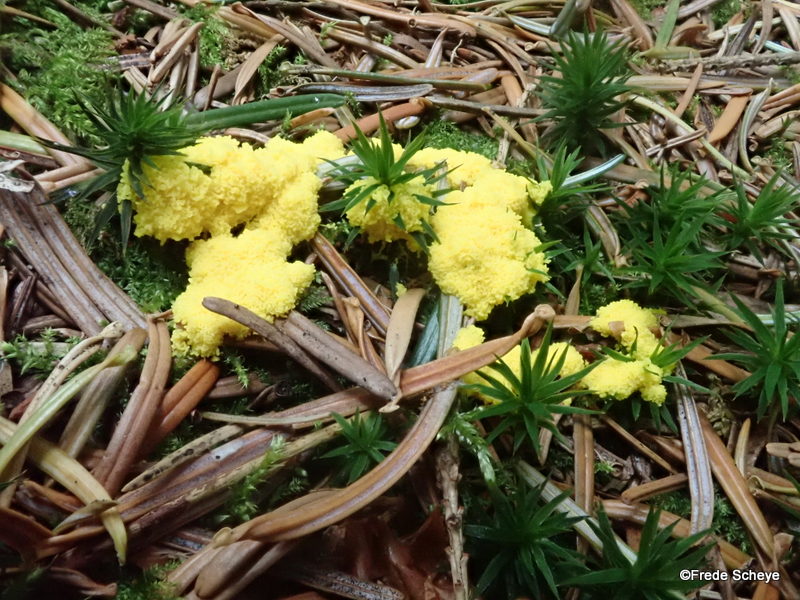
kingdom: Protozoa
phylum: Mycetozoa
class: Myxomycetes
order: Physarales
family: Physaraceae
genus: Fuligo
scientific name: Fuligo septica
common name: gul troldsmør
